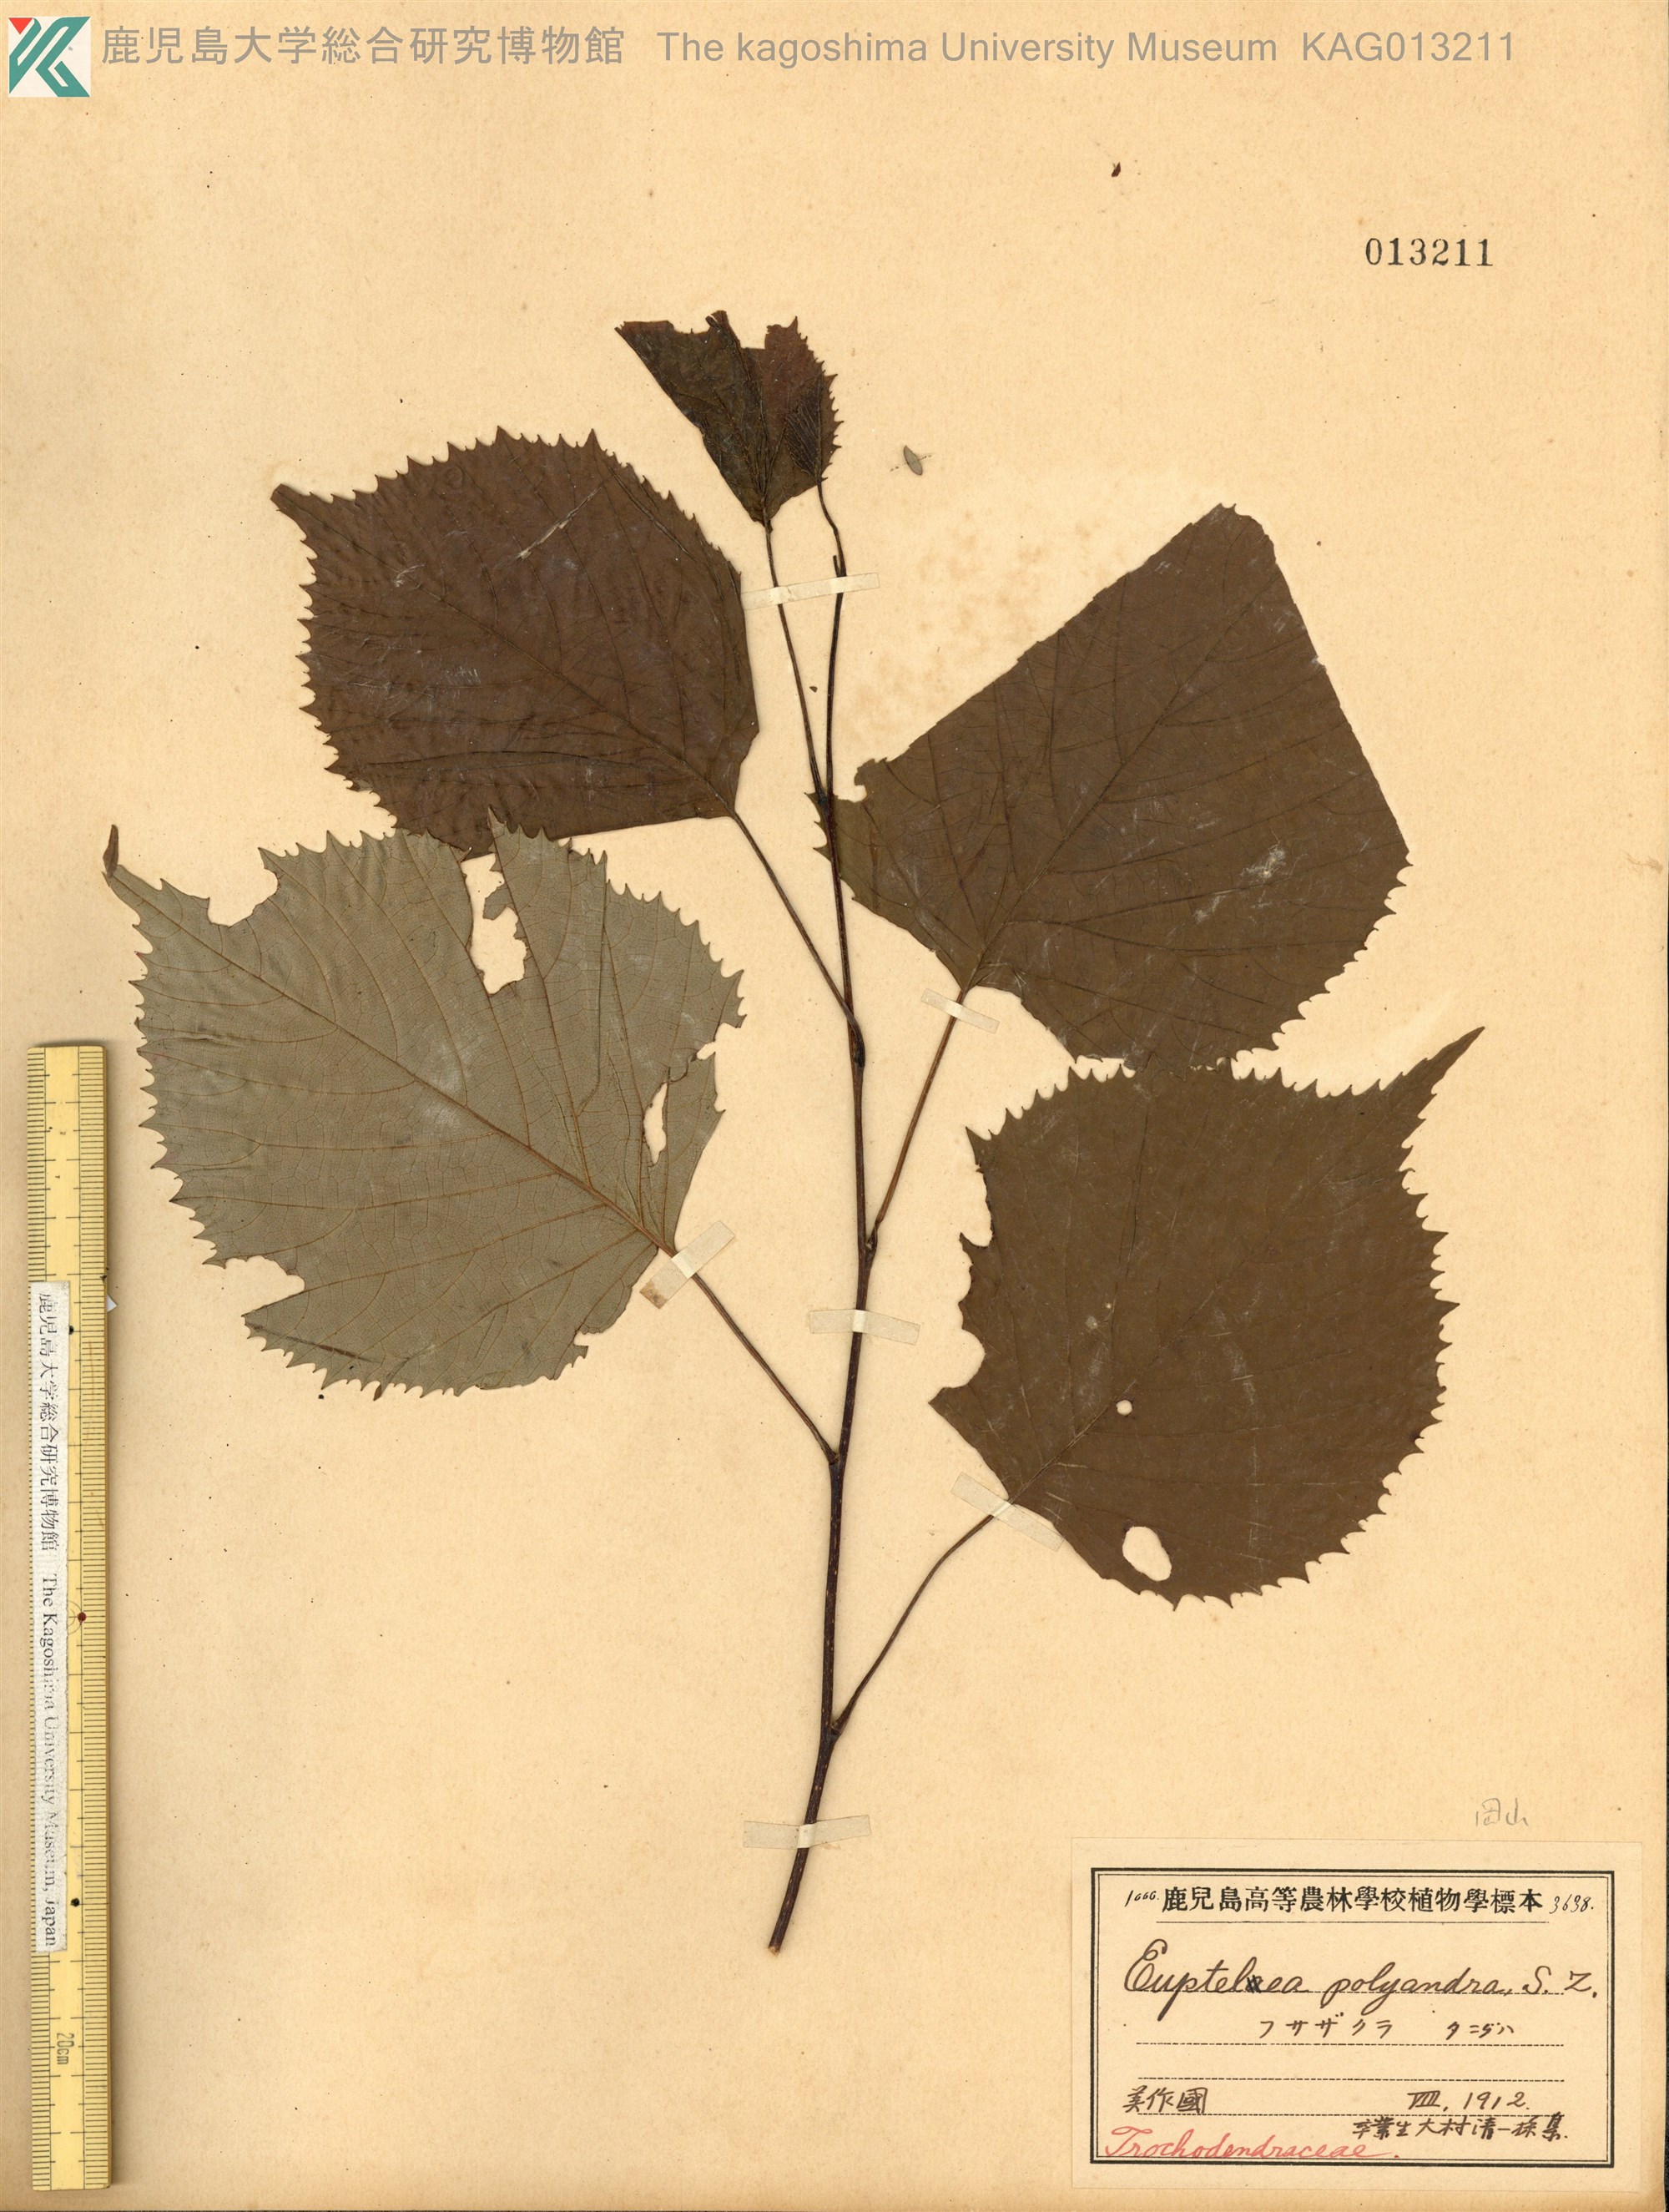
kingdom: Plantae
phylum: Tracheophyta
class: Magnoliopsida
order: Ranunculales
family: Eupteleaceae
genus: Euptelea
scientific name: Euptelea polyandra
